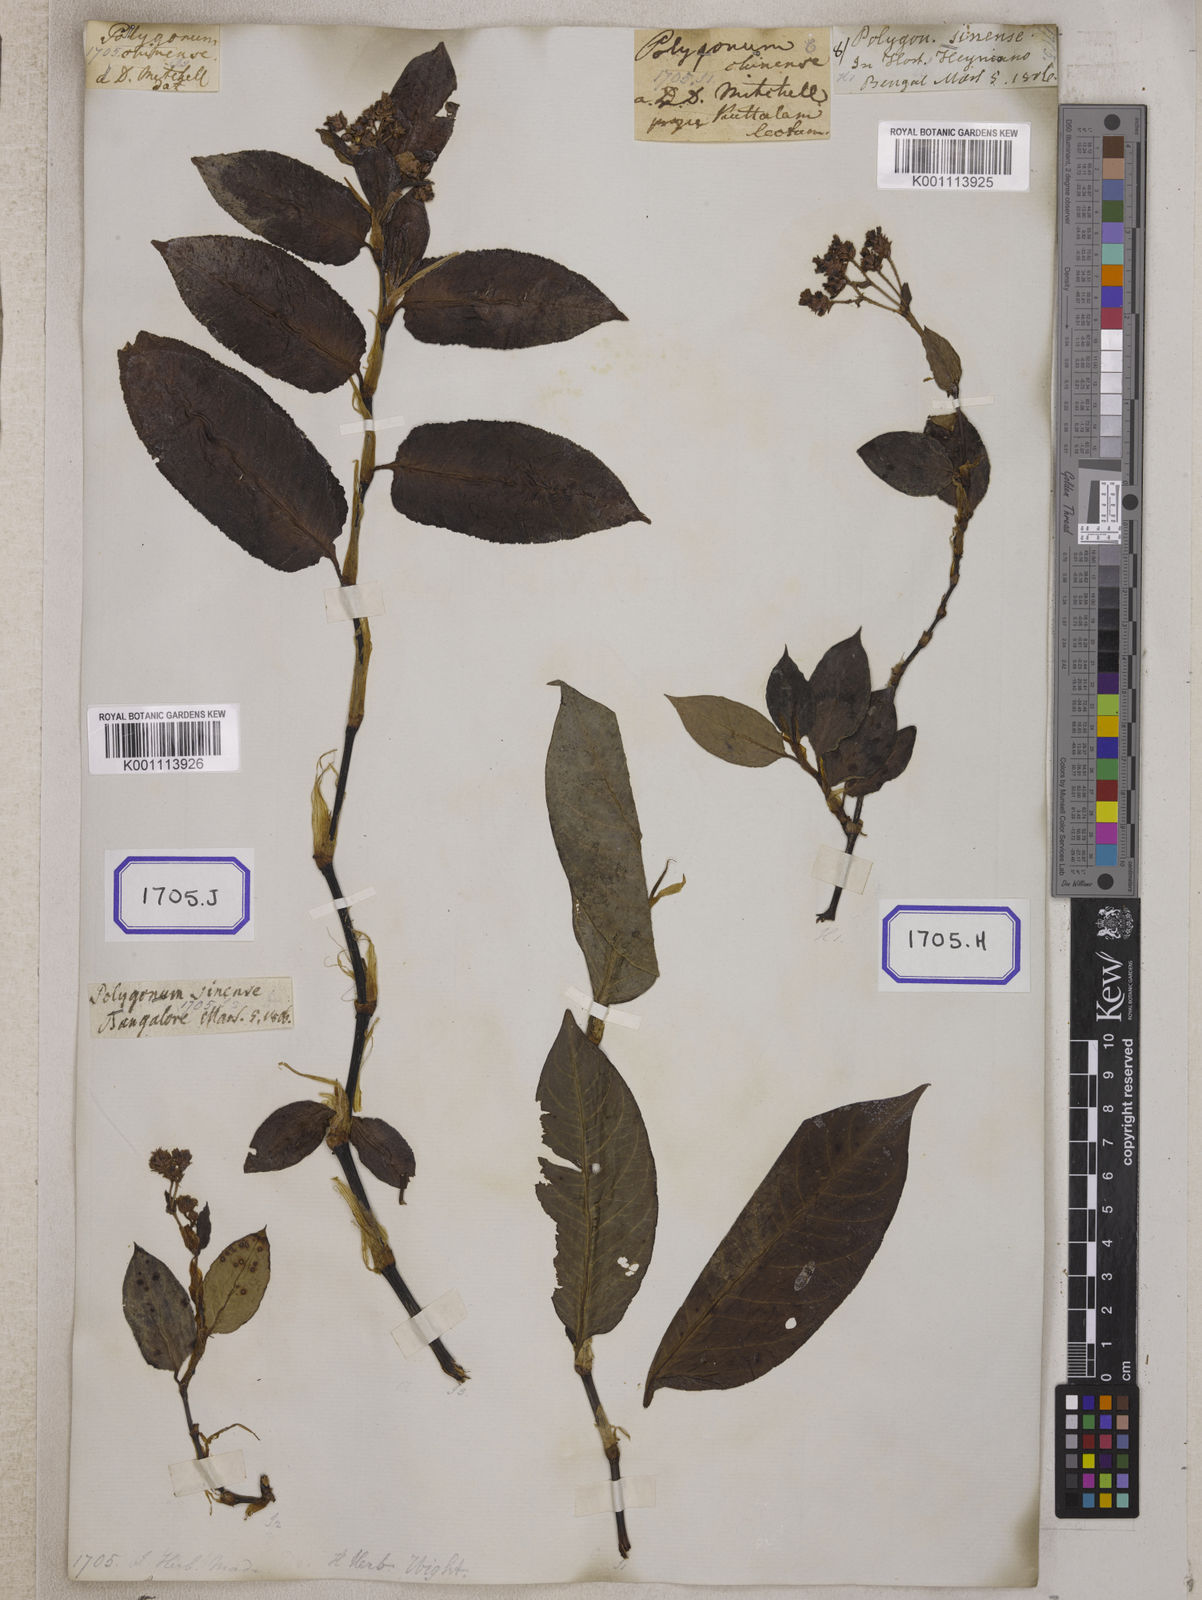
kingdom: Plantae
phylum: Tracheophyta
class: Magnoliopsida
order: Caryophyllales
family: Polygonaceae
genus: Persicaria
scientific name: Persicaria chinensis
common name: Chinese knotweed
